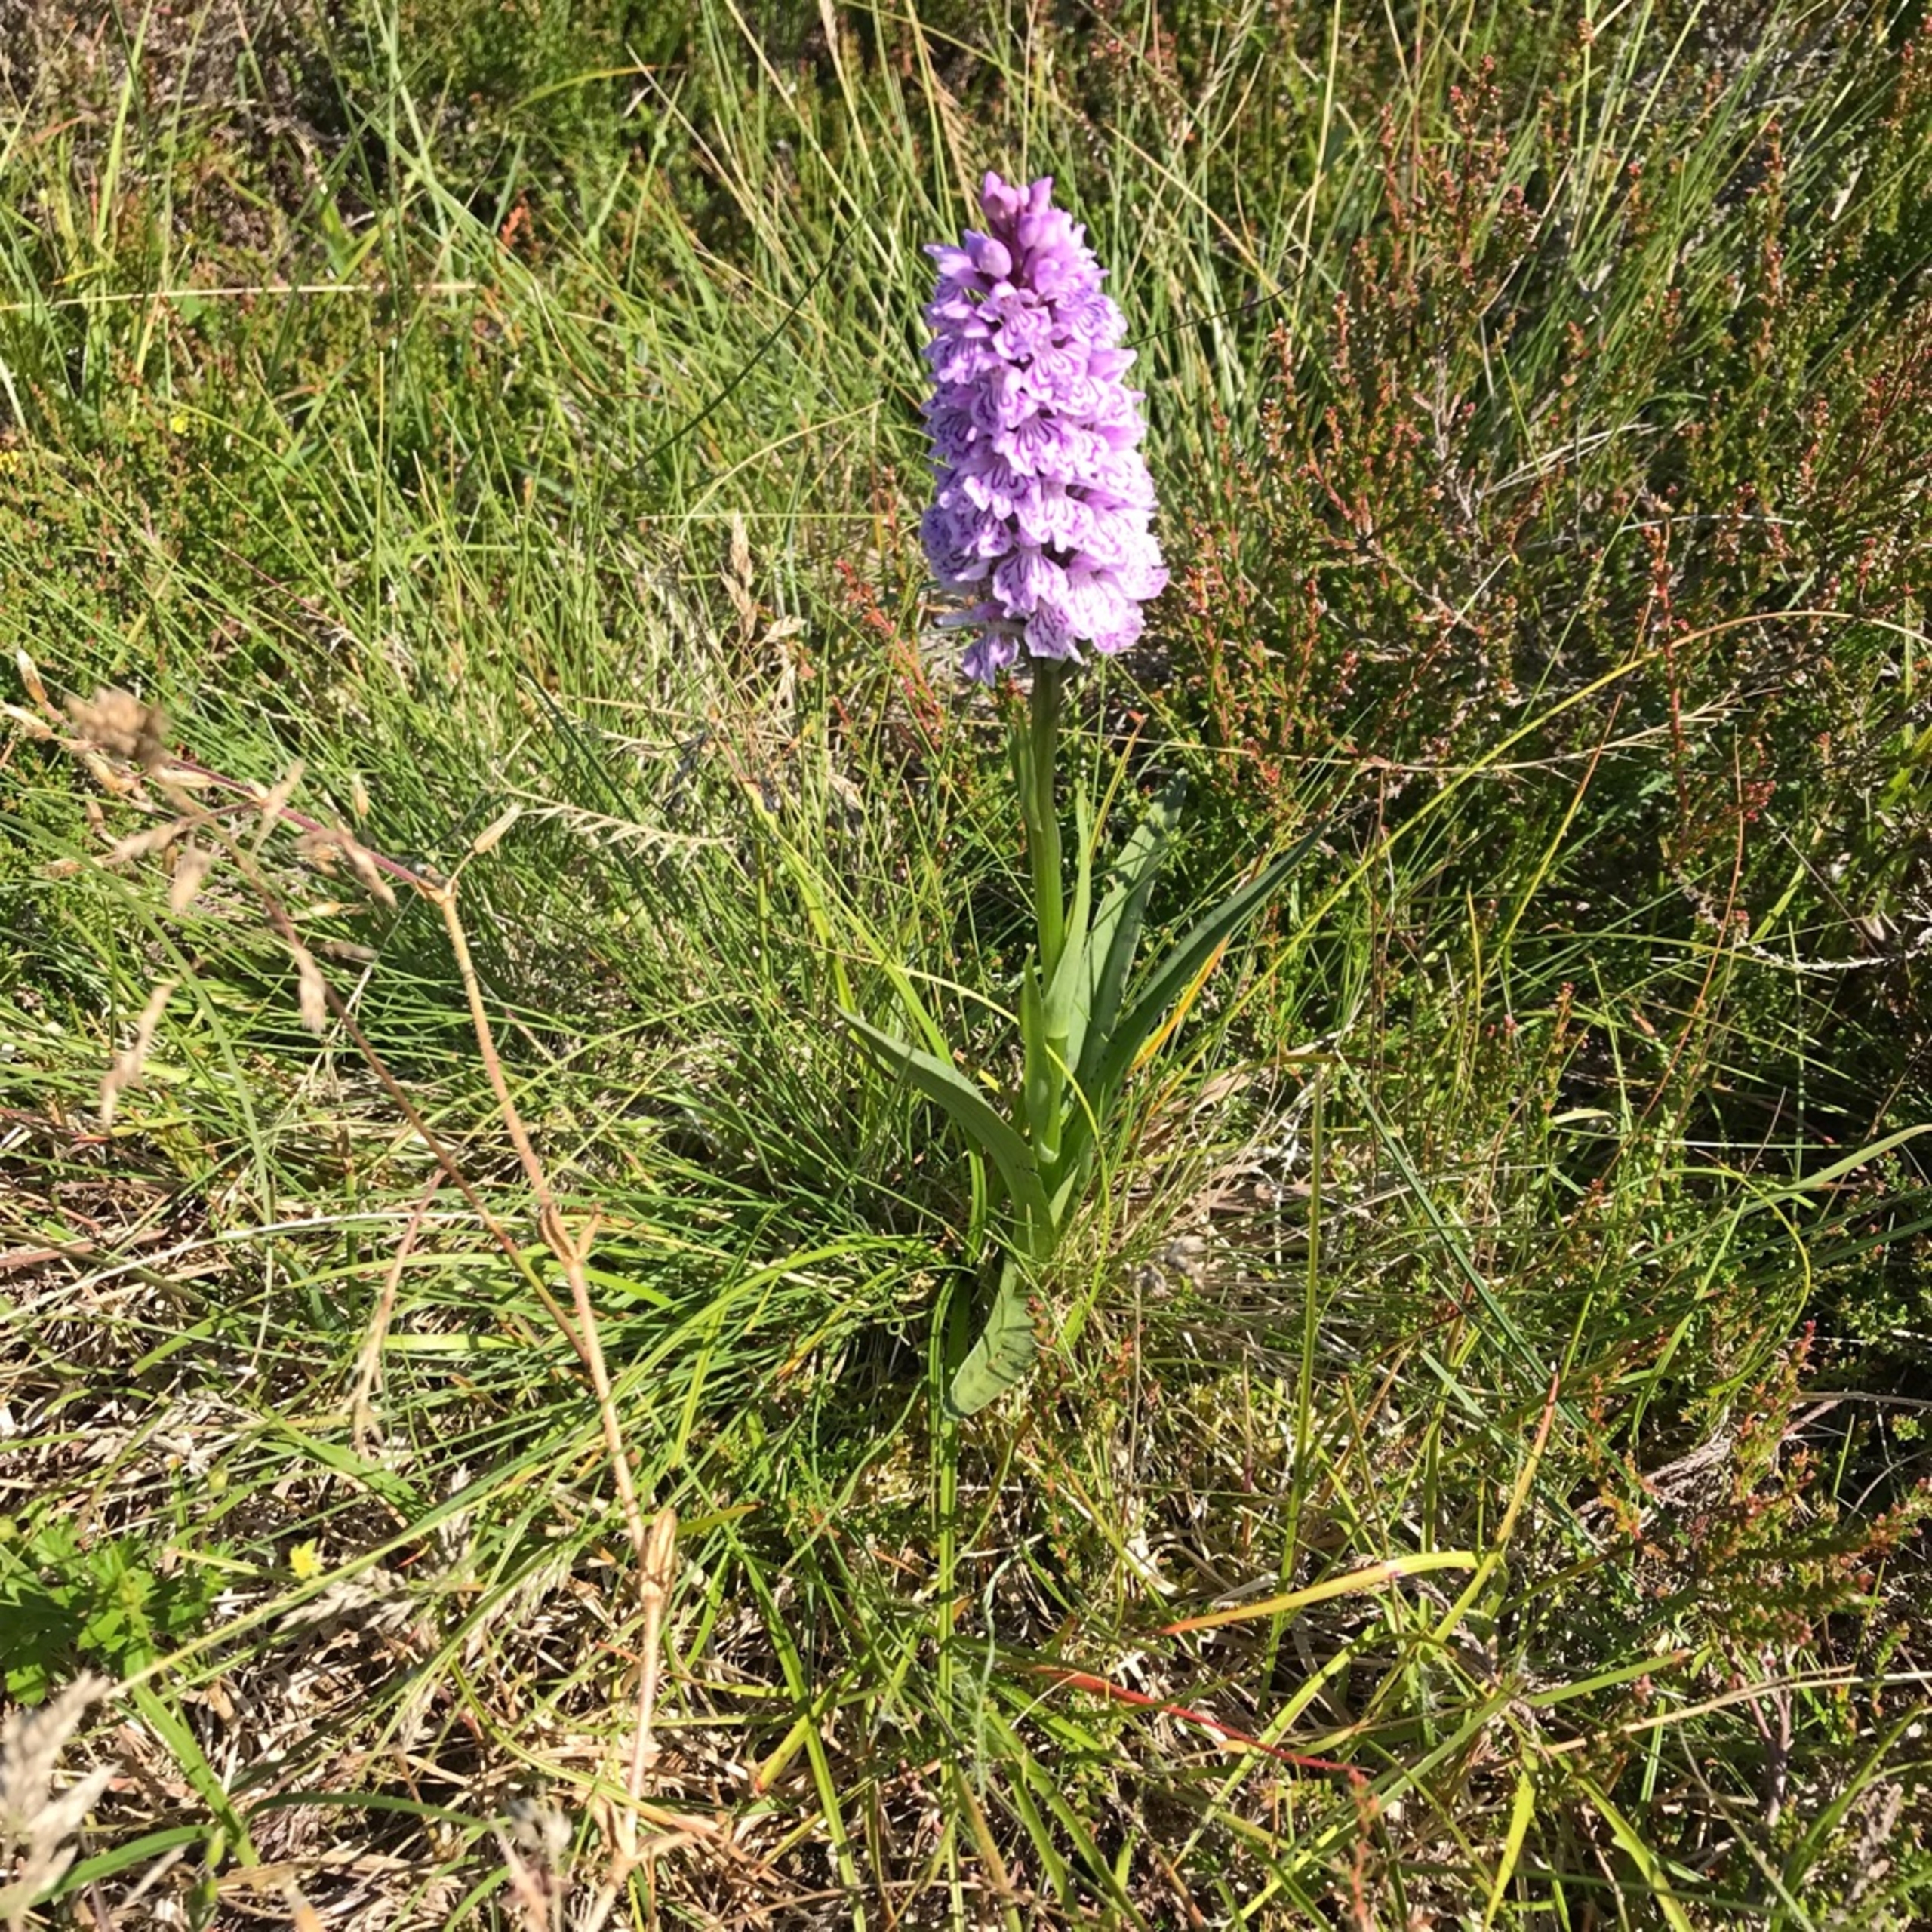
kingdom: Plantae
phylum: Tracheophyta
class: Liliopsida
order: Asparagales
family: Orchidaceae
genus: Dactylorhiza
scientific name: Dactylorhiza maculata
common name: Plettet gøgeurt
